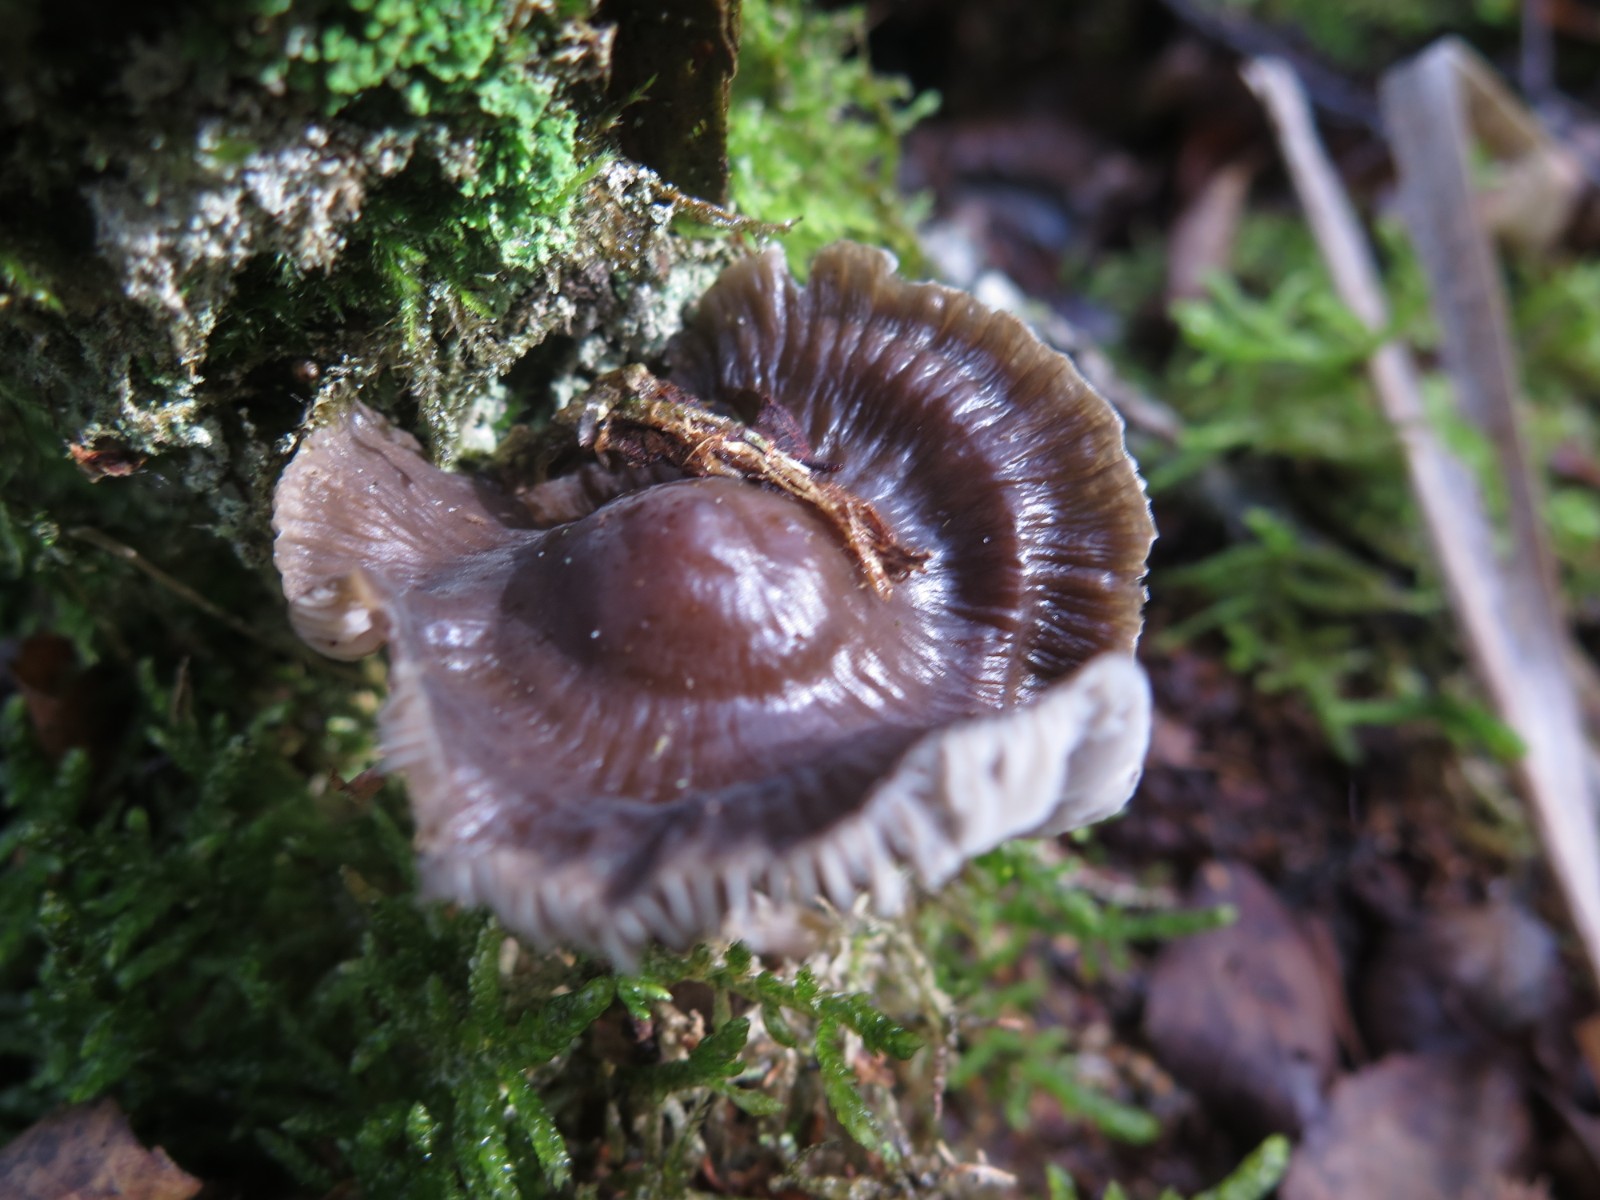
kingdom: Fungi
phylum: Basidiomycota
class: Agaricomycetes
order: Agaricales
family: Mycenaceae
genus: Mycena
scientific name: Mycena megaspora
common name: brusk-huesvamp
